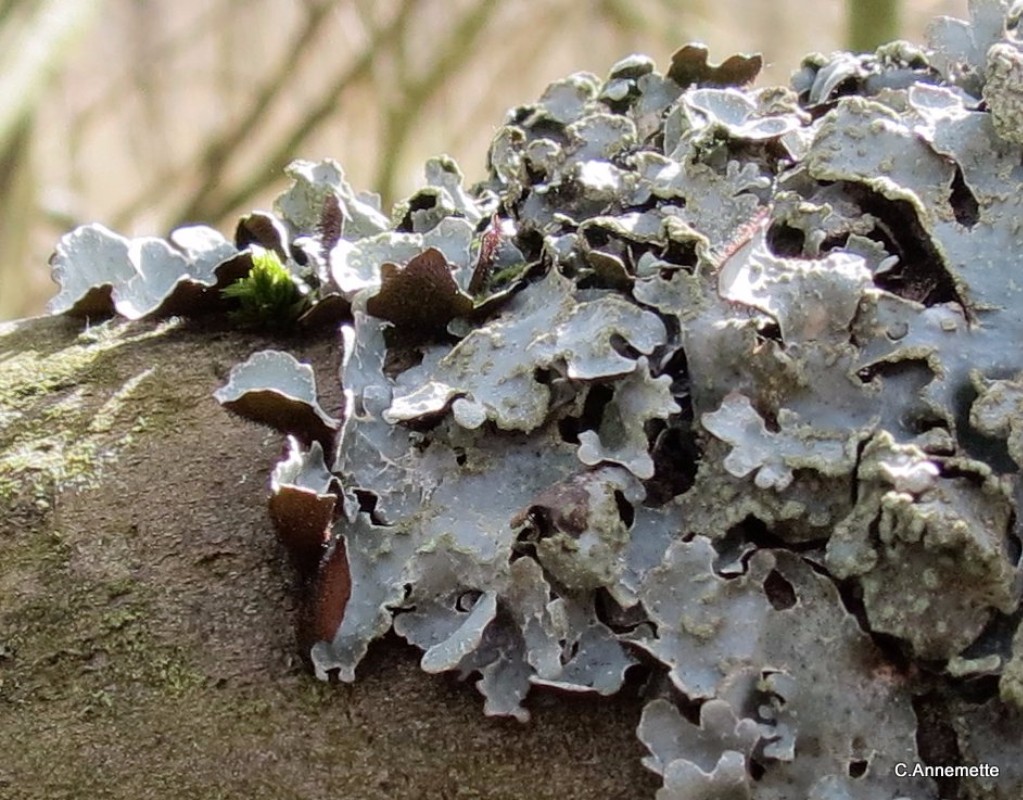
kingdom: Fungi
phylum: Ascomycota
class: Lecanoromycetes
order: Lecanorales
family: Parmeliaceae
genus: Parmelia
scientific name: Parmelia sulcata
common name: rynket skållav
